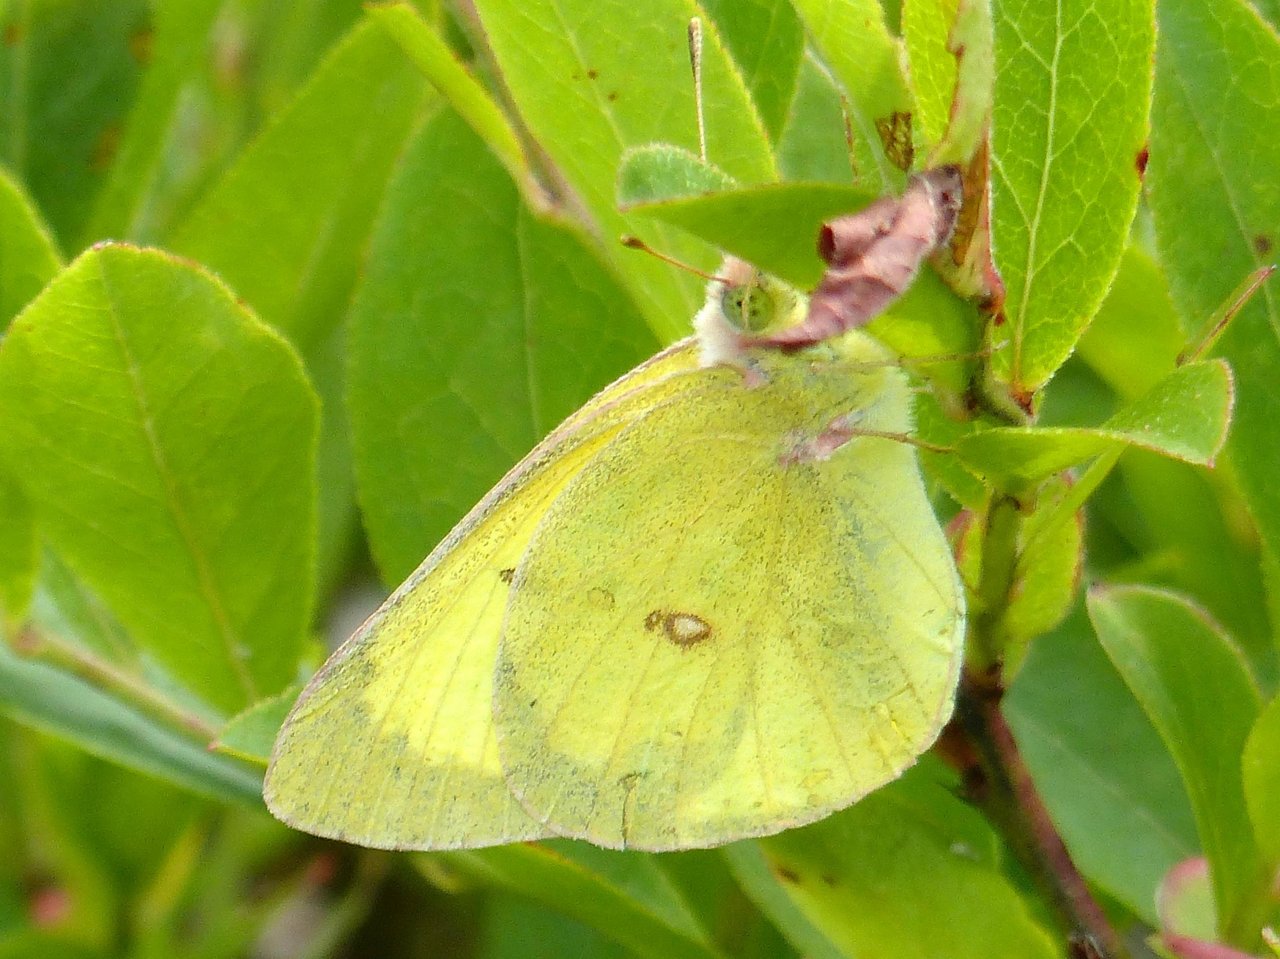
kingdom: Animalia
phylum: Arthropoda
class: Insecta
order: Lepidoptera
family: Pieridae
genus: Colias
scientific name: Colias philodice
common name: Clouded Sulphur
